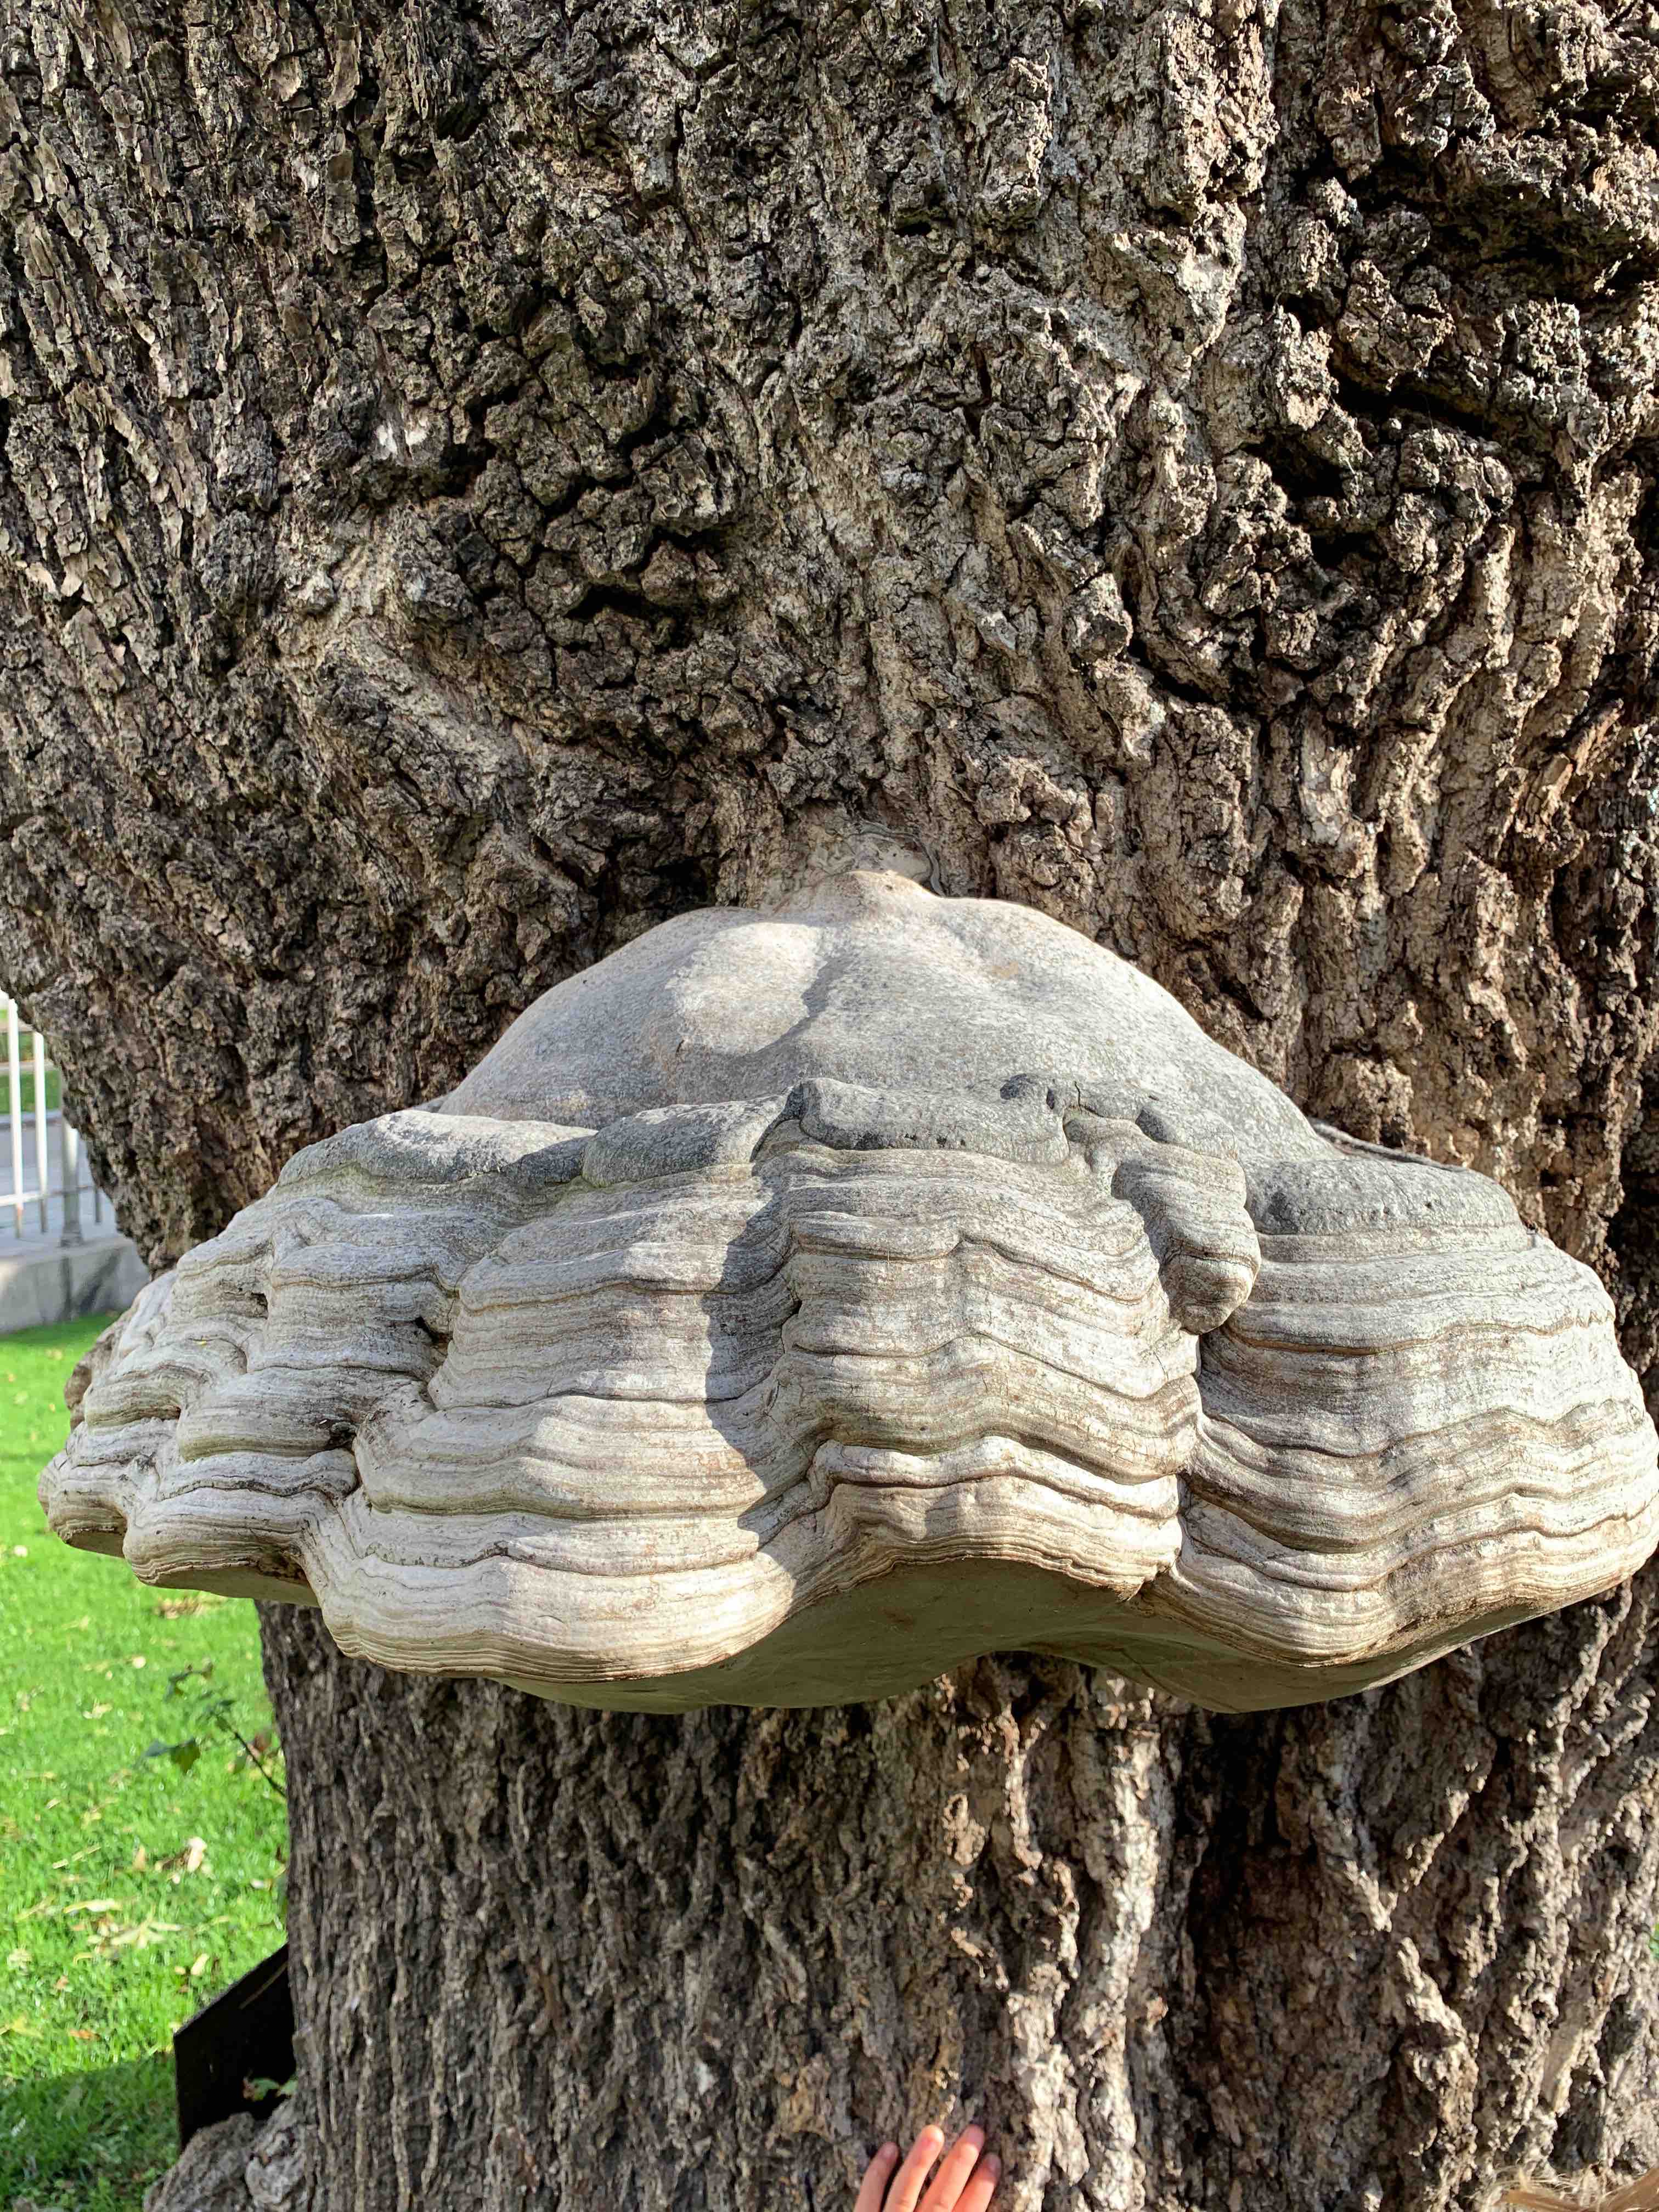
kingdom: Fungi
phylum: Basidiomycota
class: Agaricomycetes
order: Polyporales
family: Polyporaceae
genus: Fomes
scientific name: Fomes fomentarius
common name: tøndersvamp
